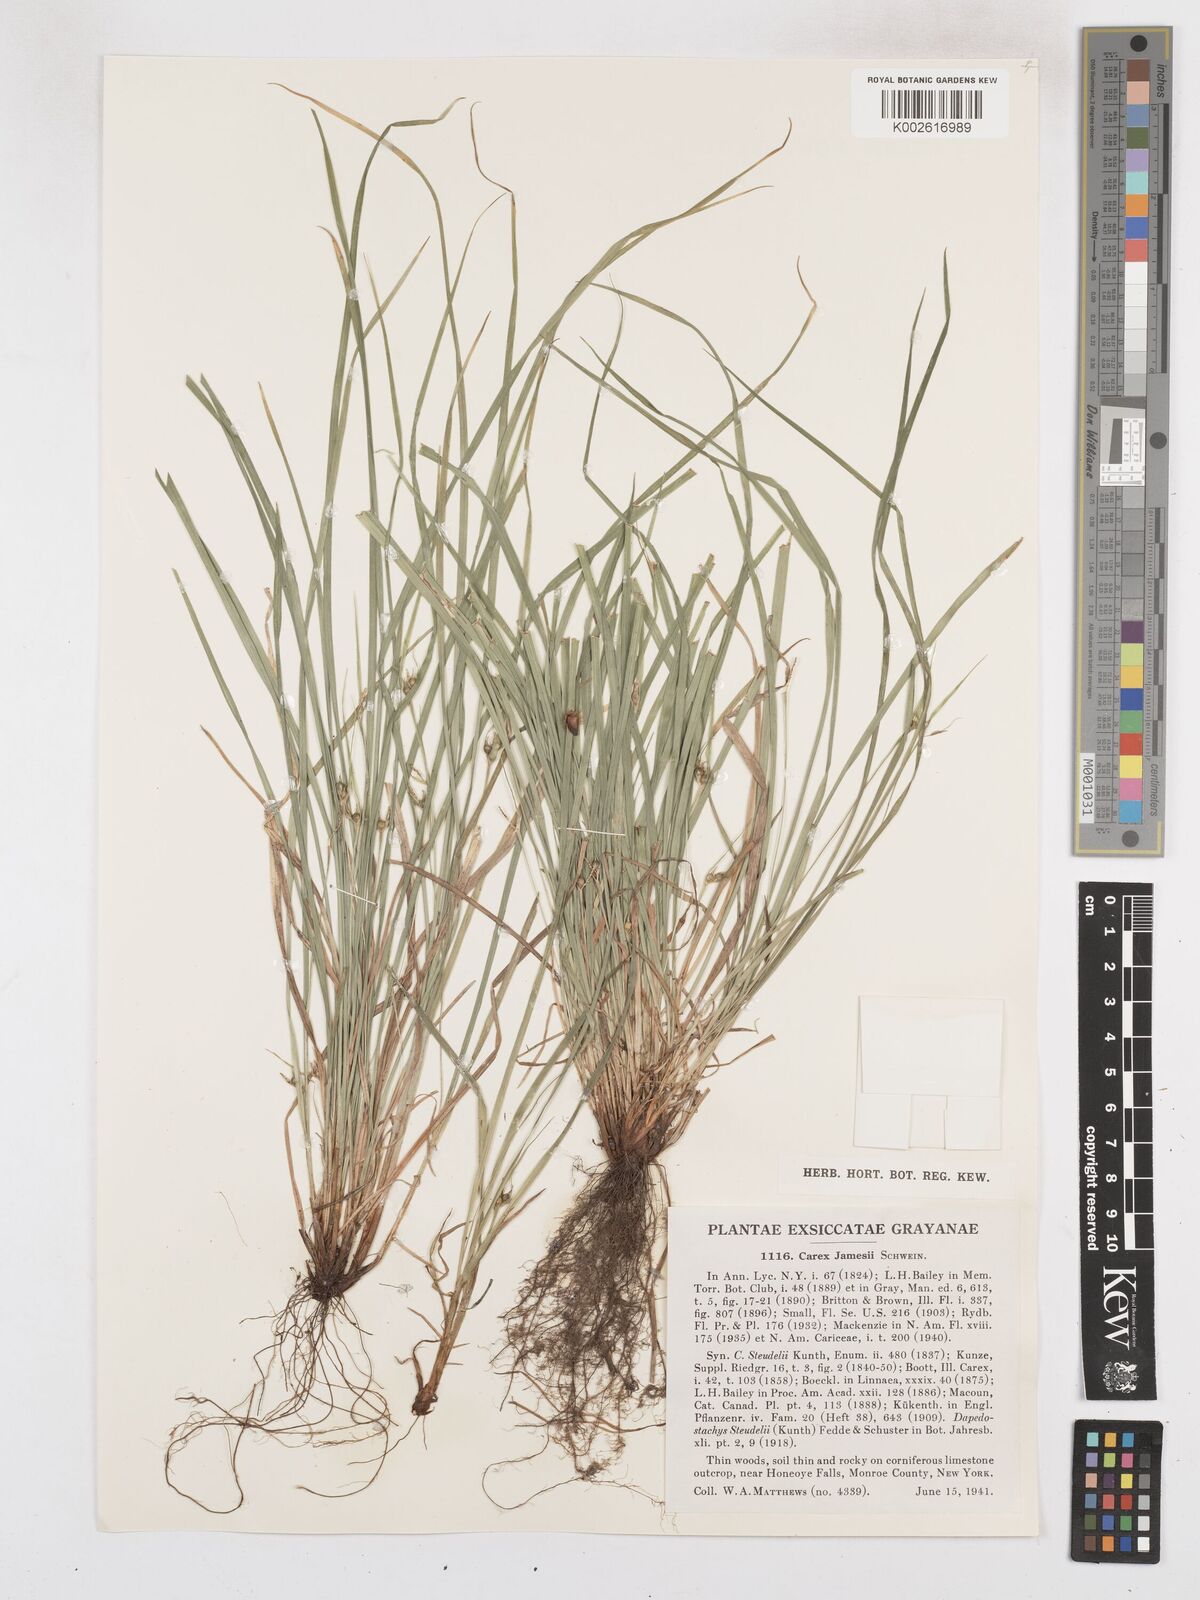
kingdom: Plantae
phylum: Tracheophyta
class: Liliopsida
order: Poales
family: Cyperaceae
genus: Carex
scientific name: Carex jamesii
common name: Grass sedge
